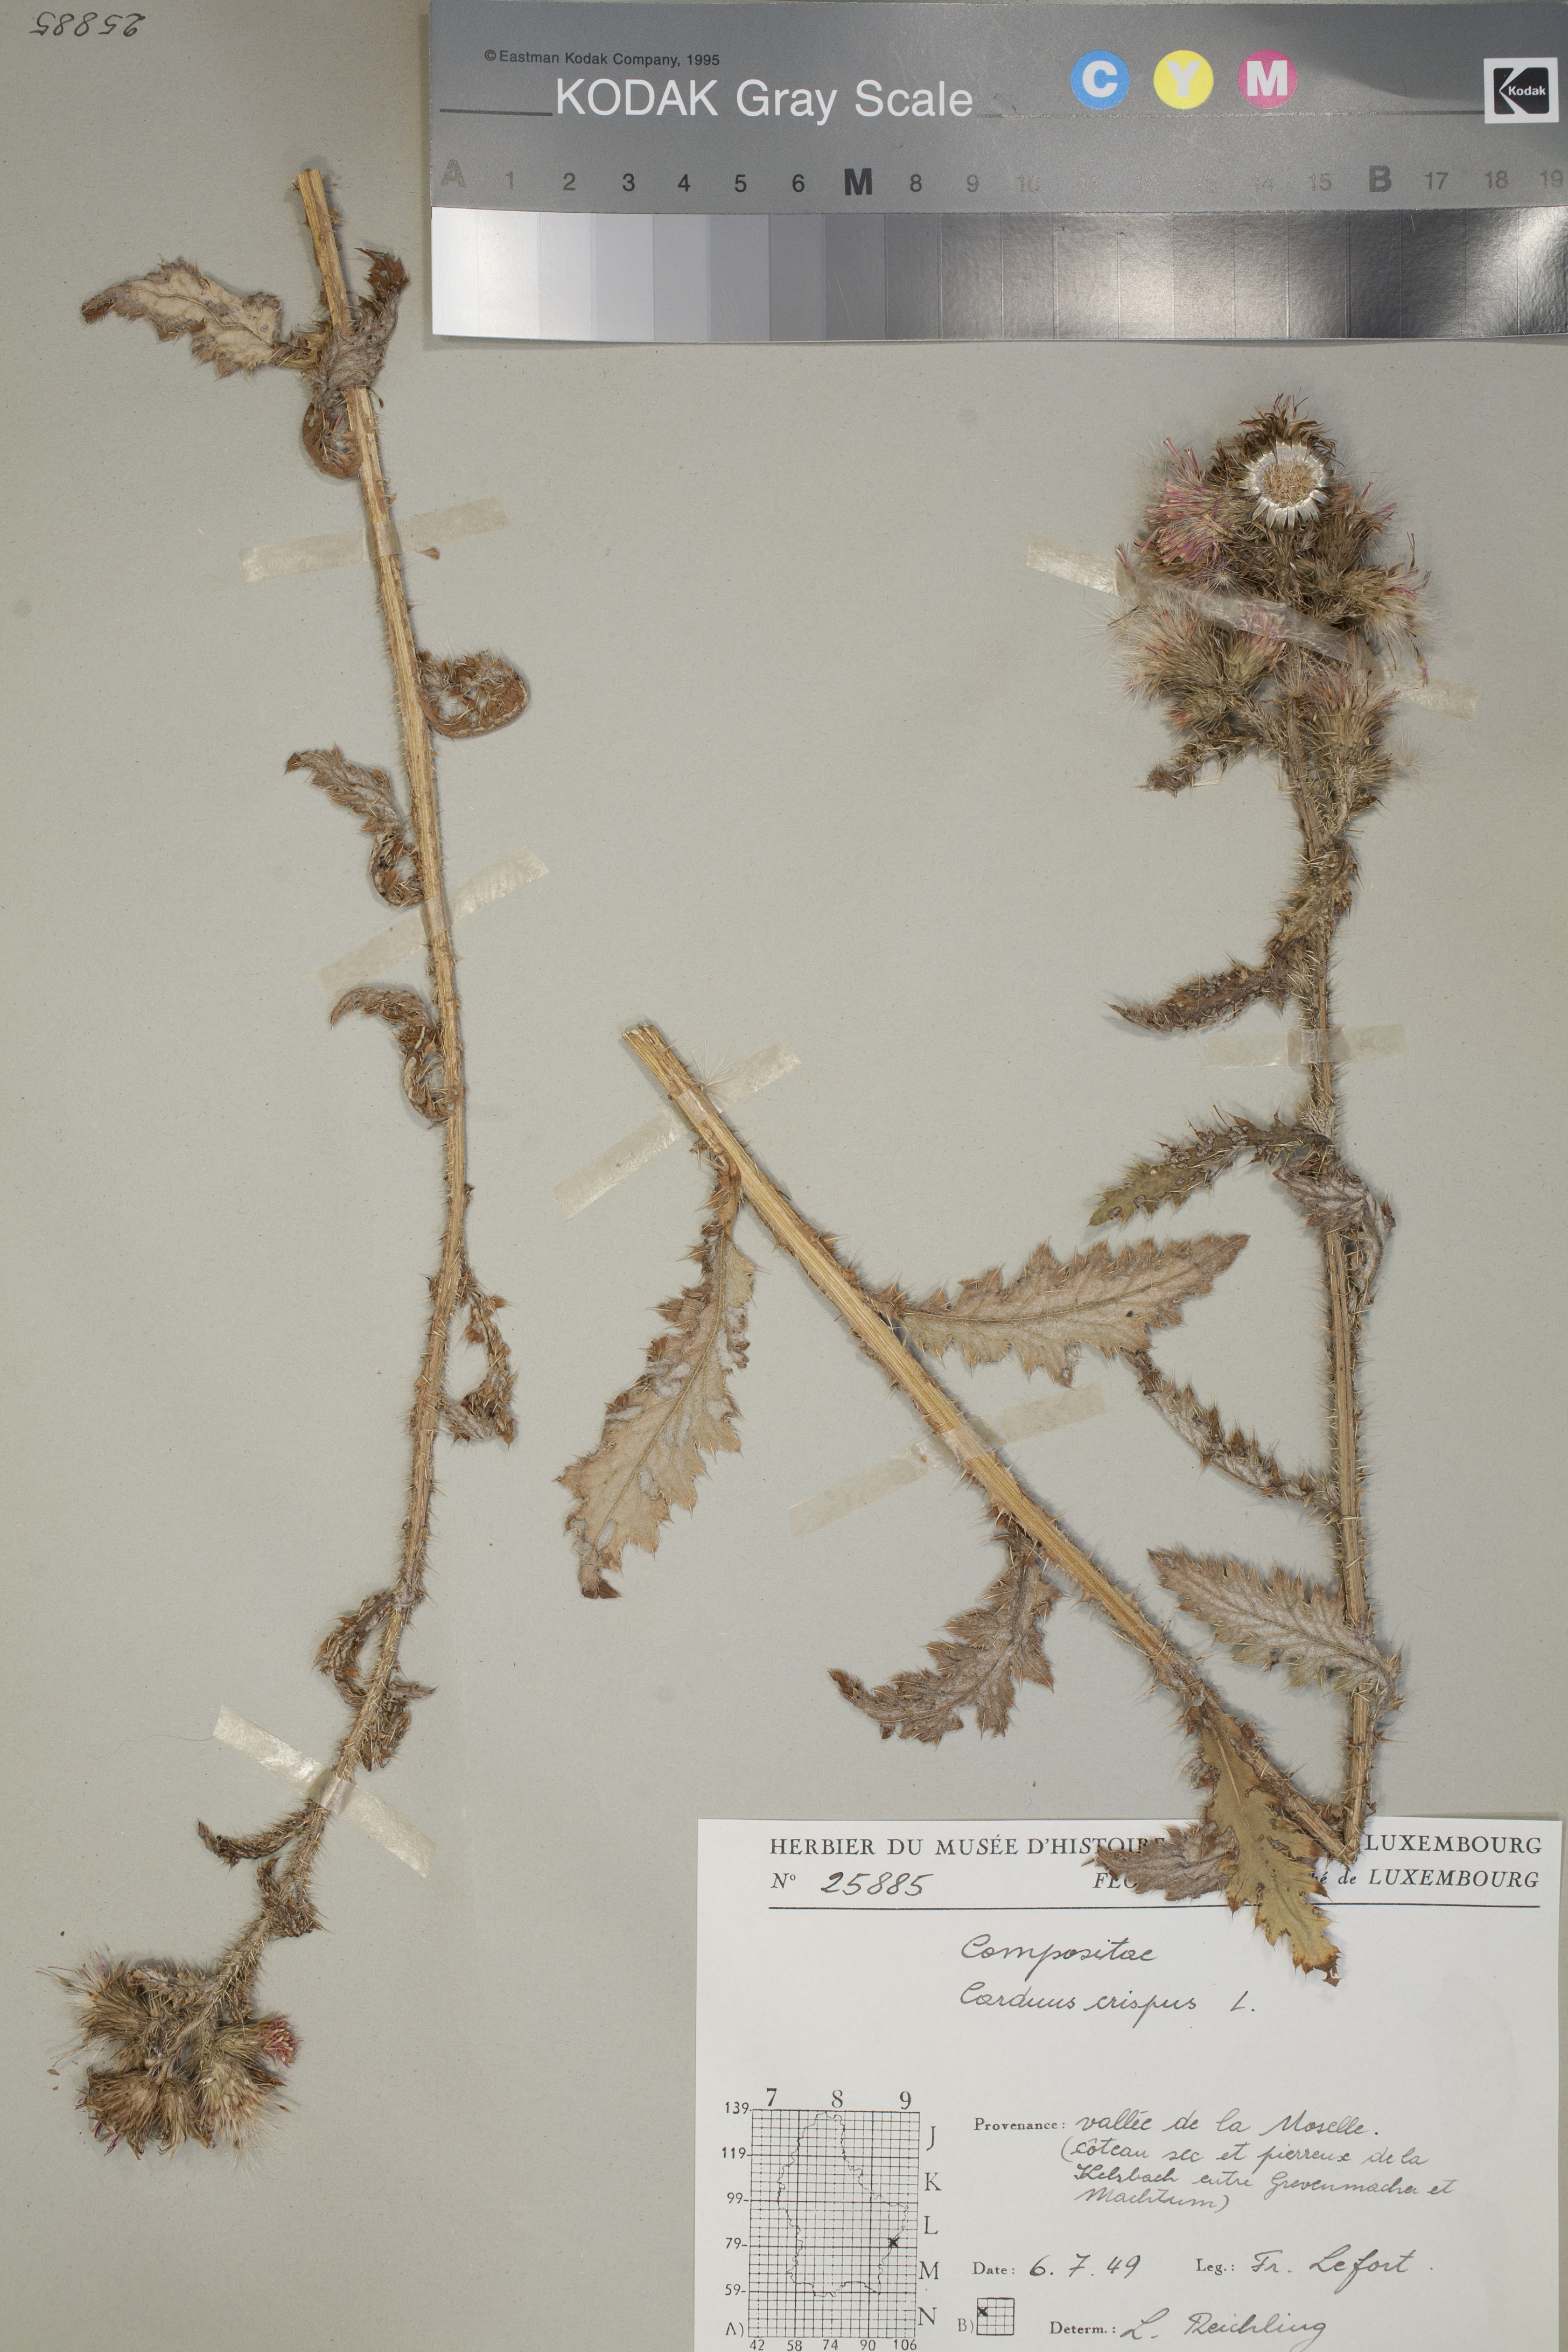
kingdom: Plantae
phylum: Tracheophyta
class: Magnoliopsida
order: Asterales
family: Asteraceae
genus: Carduus
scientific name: Carduus crispus
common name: Welted thistle
